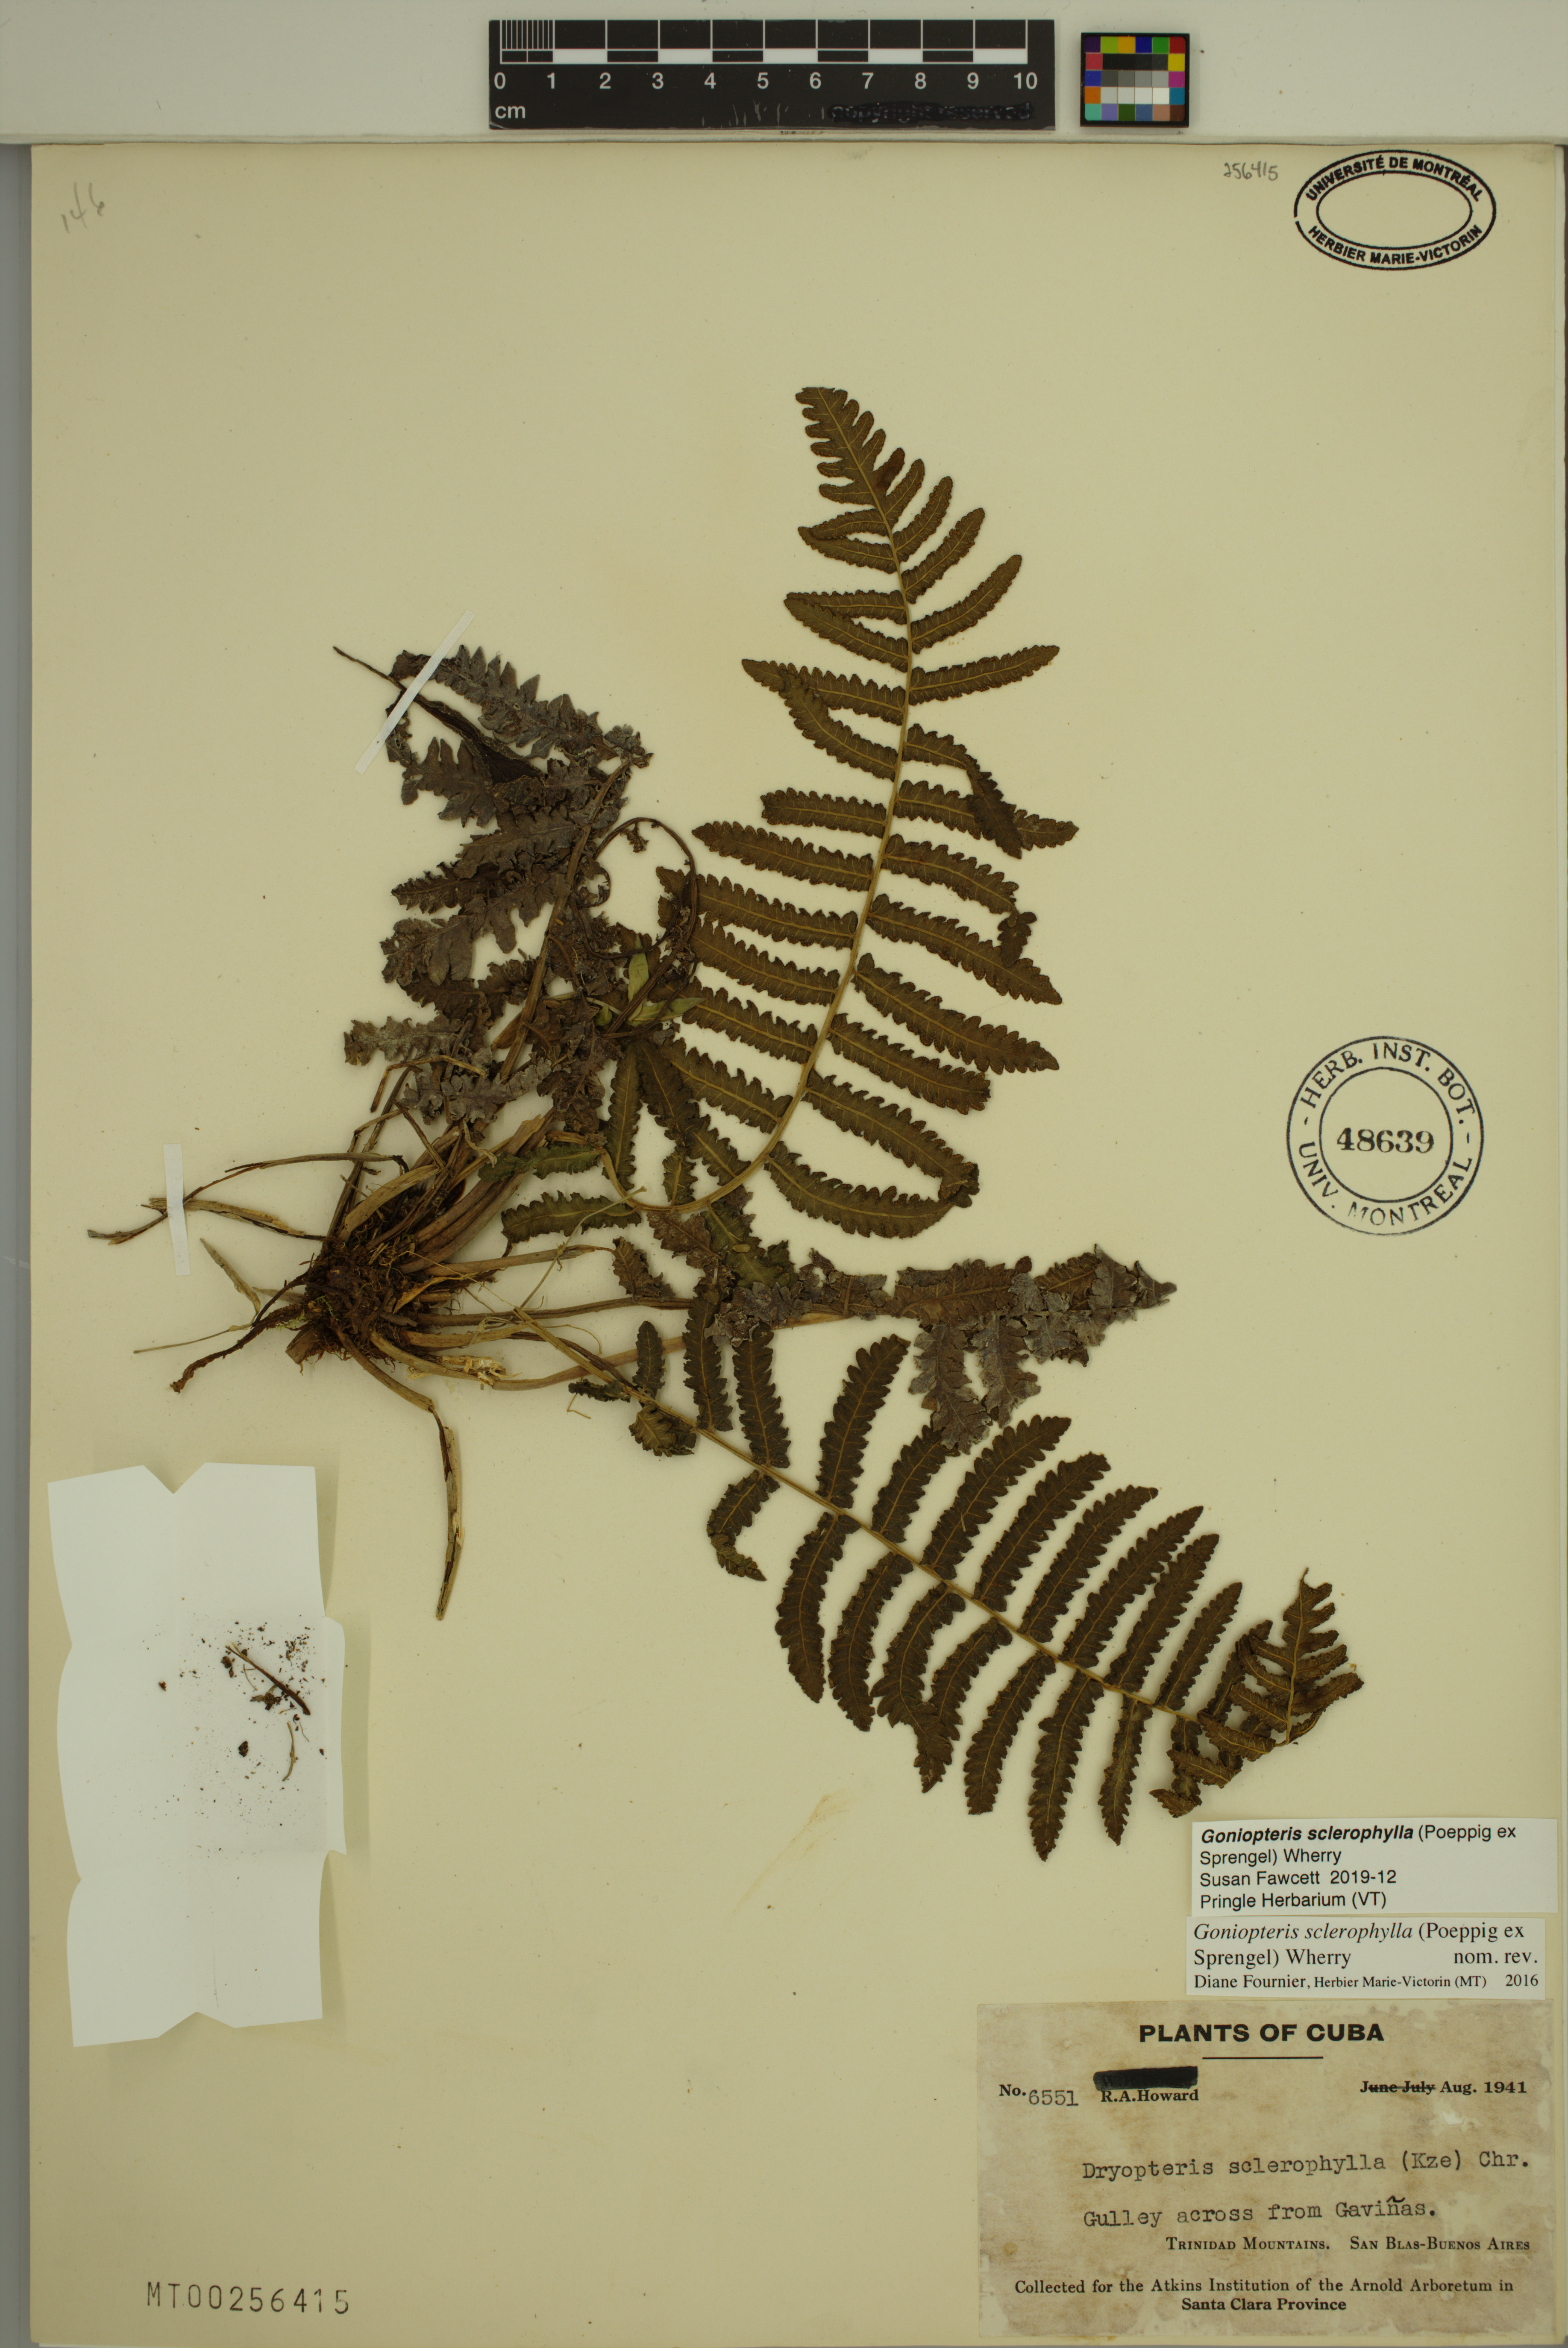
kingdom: Plantae
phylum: Tracheophyta
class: Polypodiopsida
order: Polypodiales
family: Thelypteridaceae
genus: Goniopteris
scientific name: Goniopteris sclerophylla
